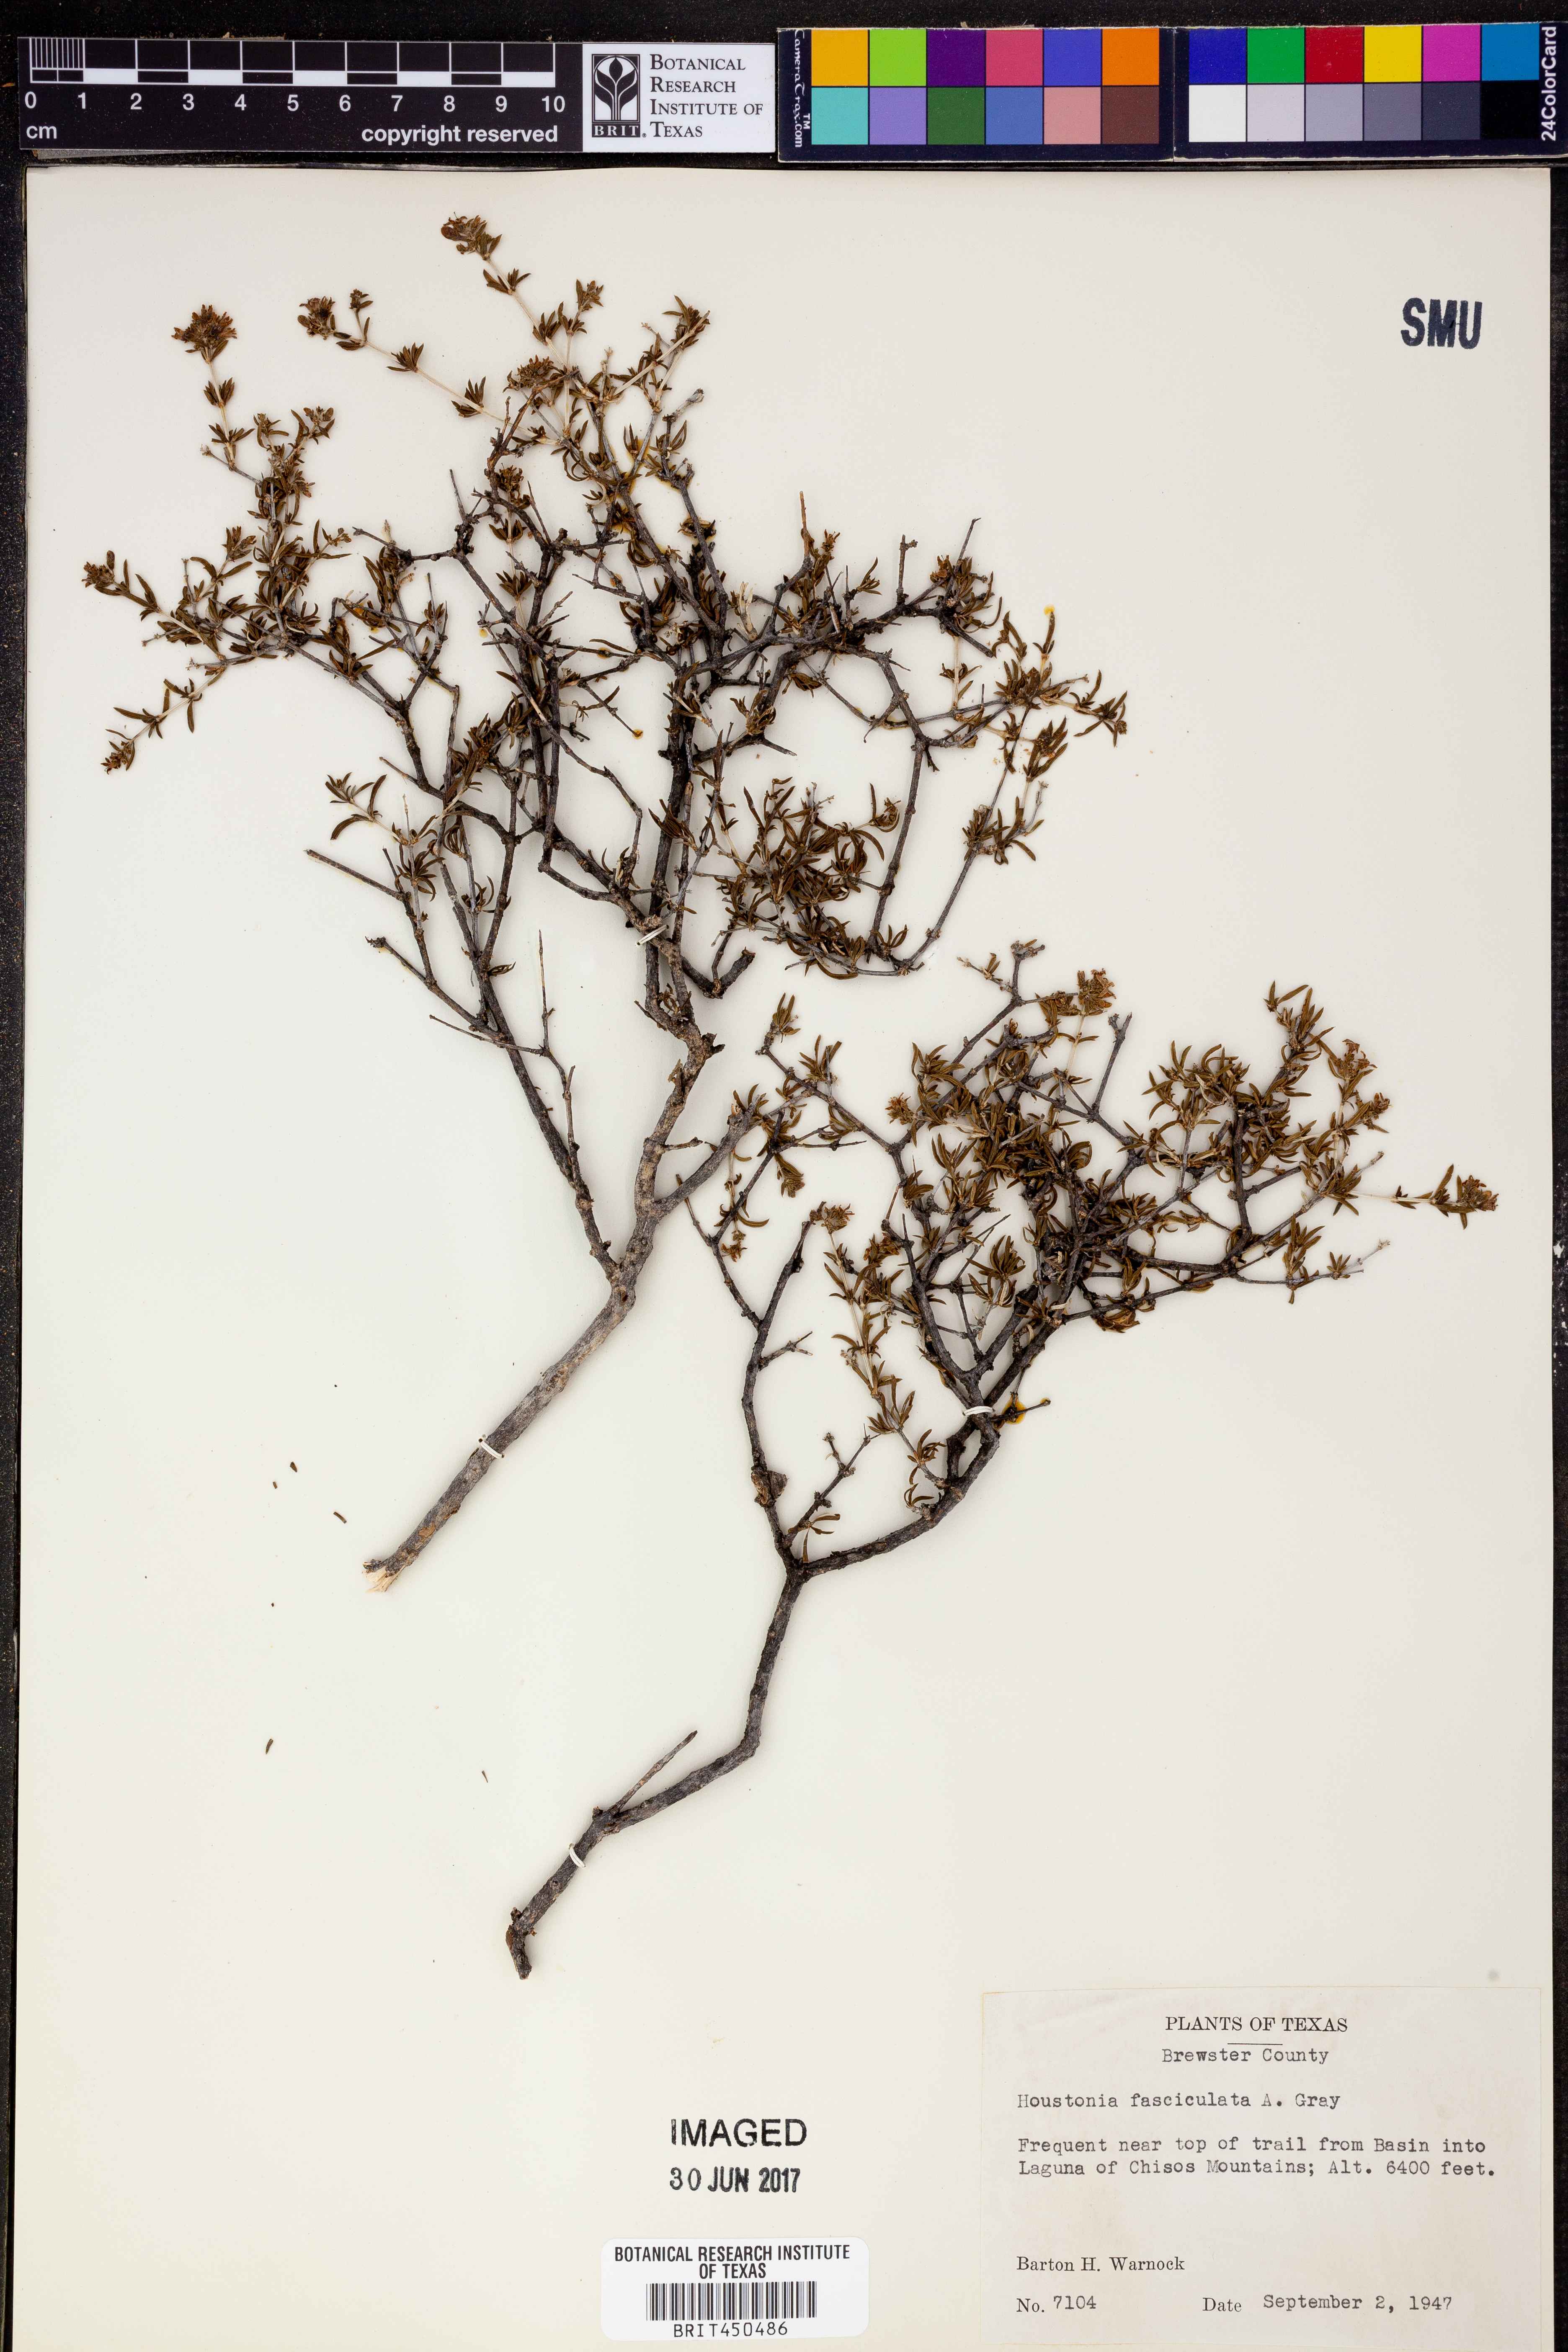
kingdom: Plantae
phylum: Tracheophyta
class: Magnoliopsida
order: Gentianales
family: Rubiaceae
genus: Arcytophyllum
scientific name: Arcytophyllum fasciculatum
